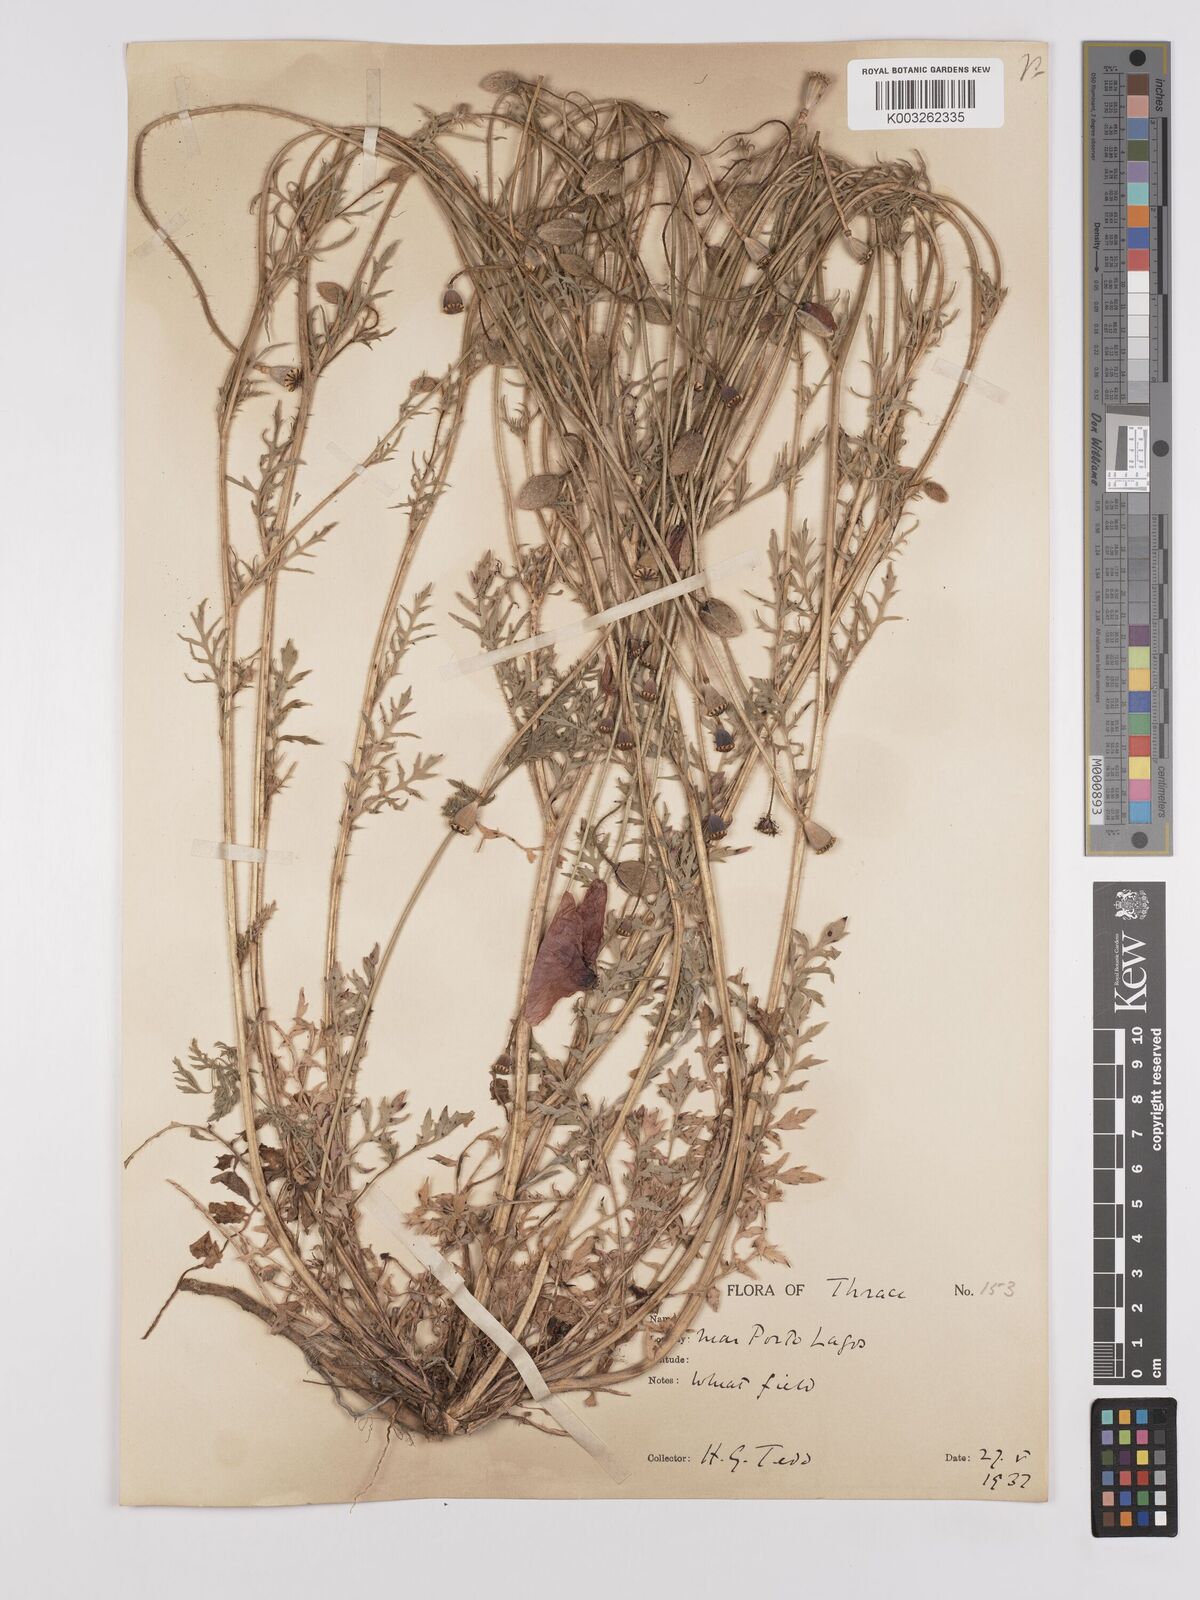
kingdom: Plantae
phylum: Tracheophyta
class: Magnoliopsida
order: Ranunculales
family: Papaveraceae
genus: Papaver
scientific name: Papaver rhoeas
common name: Corn poppy
